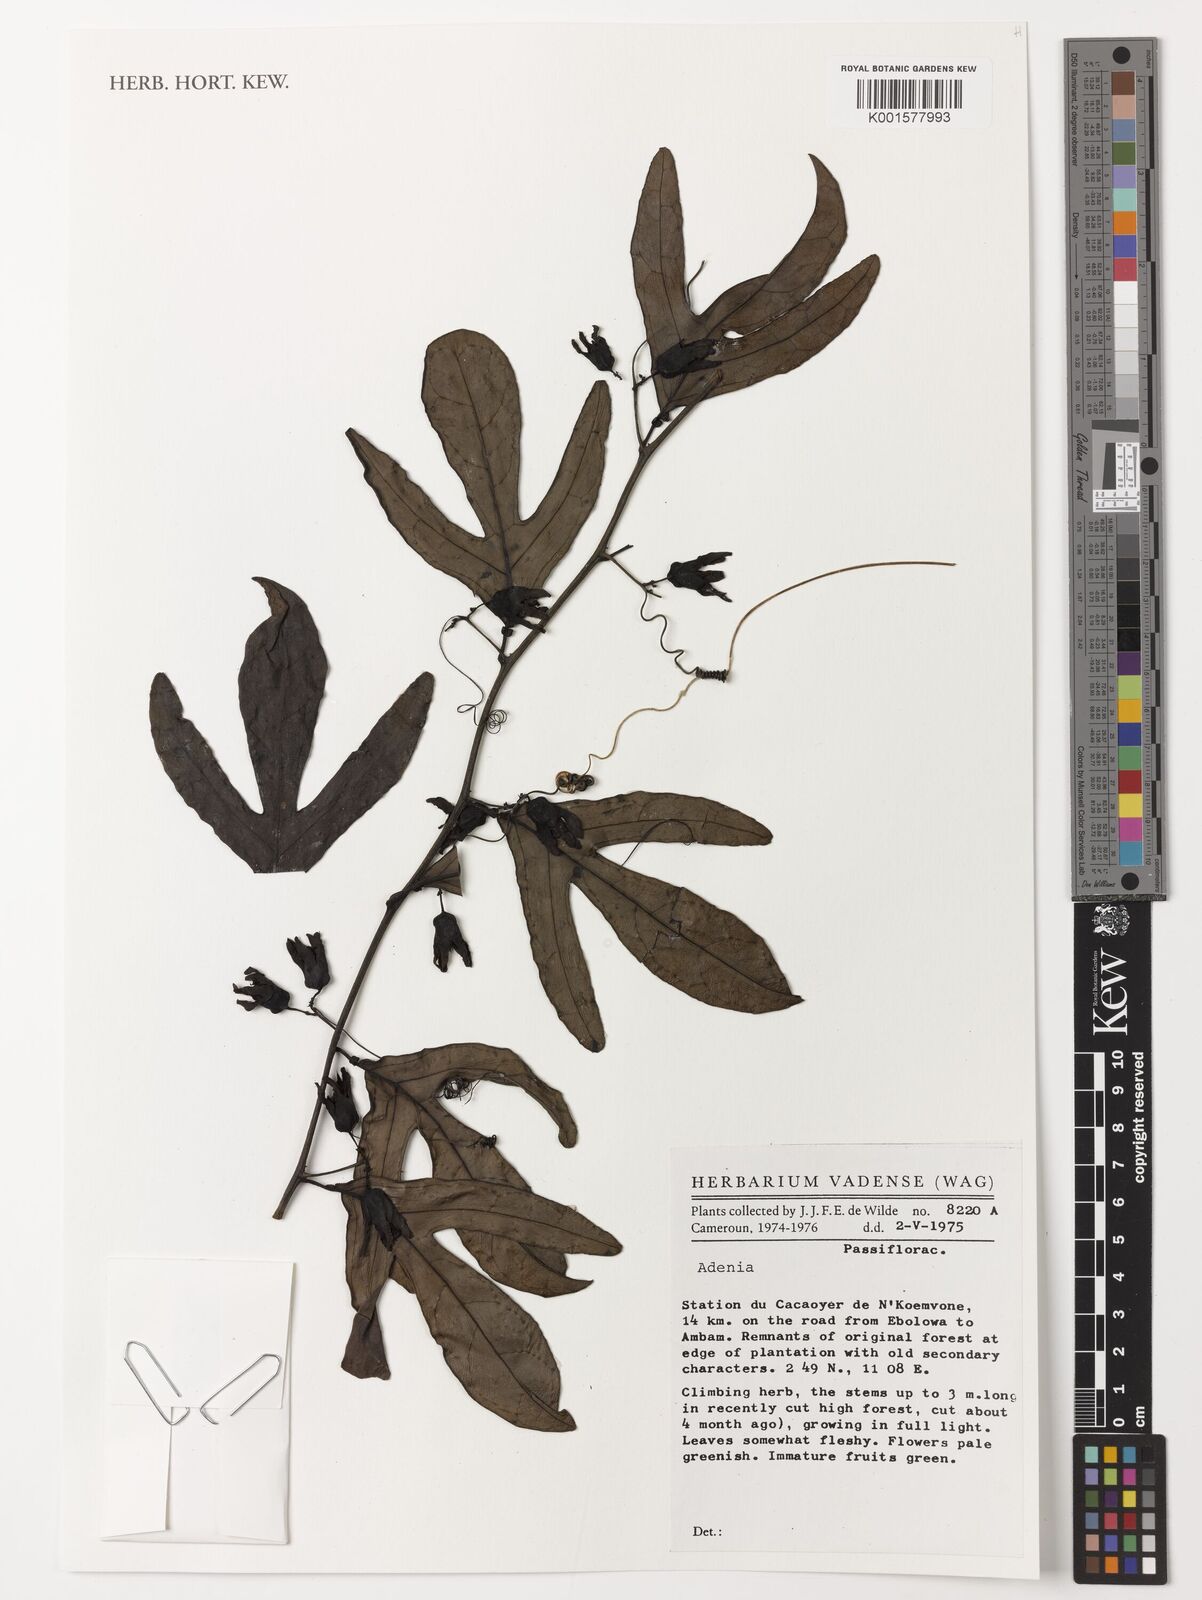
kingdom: Plantae
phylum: Tracheophyta
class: Magnoliopsida
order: Malpighiales
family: Passifloraceae
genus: Adenia
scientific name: Adenia
